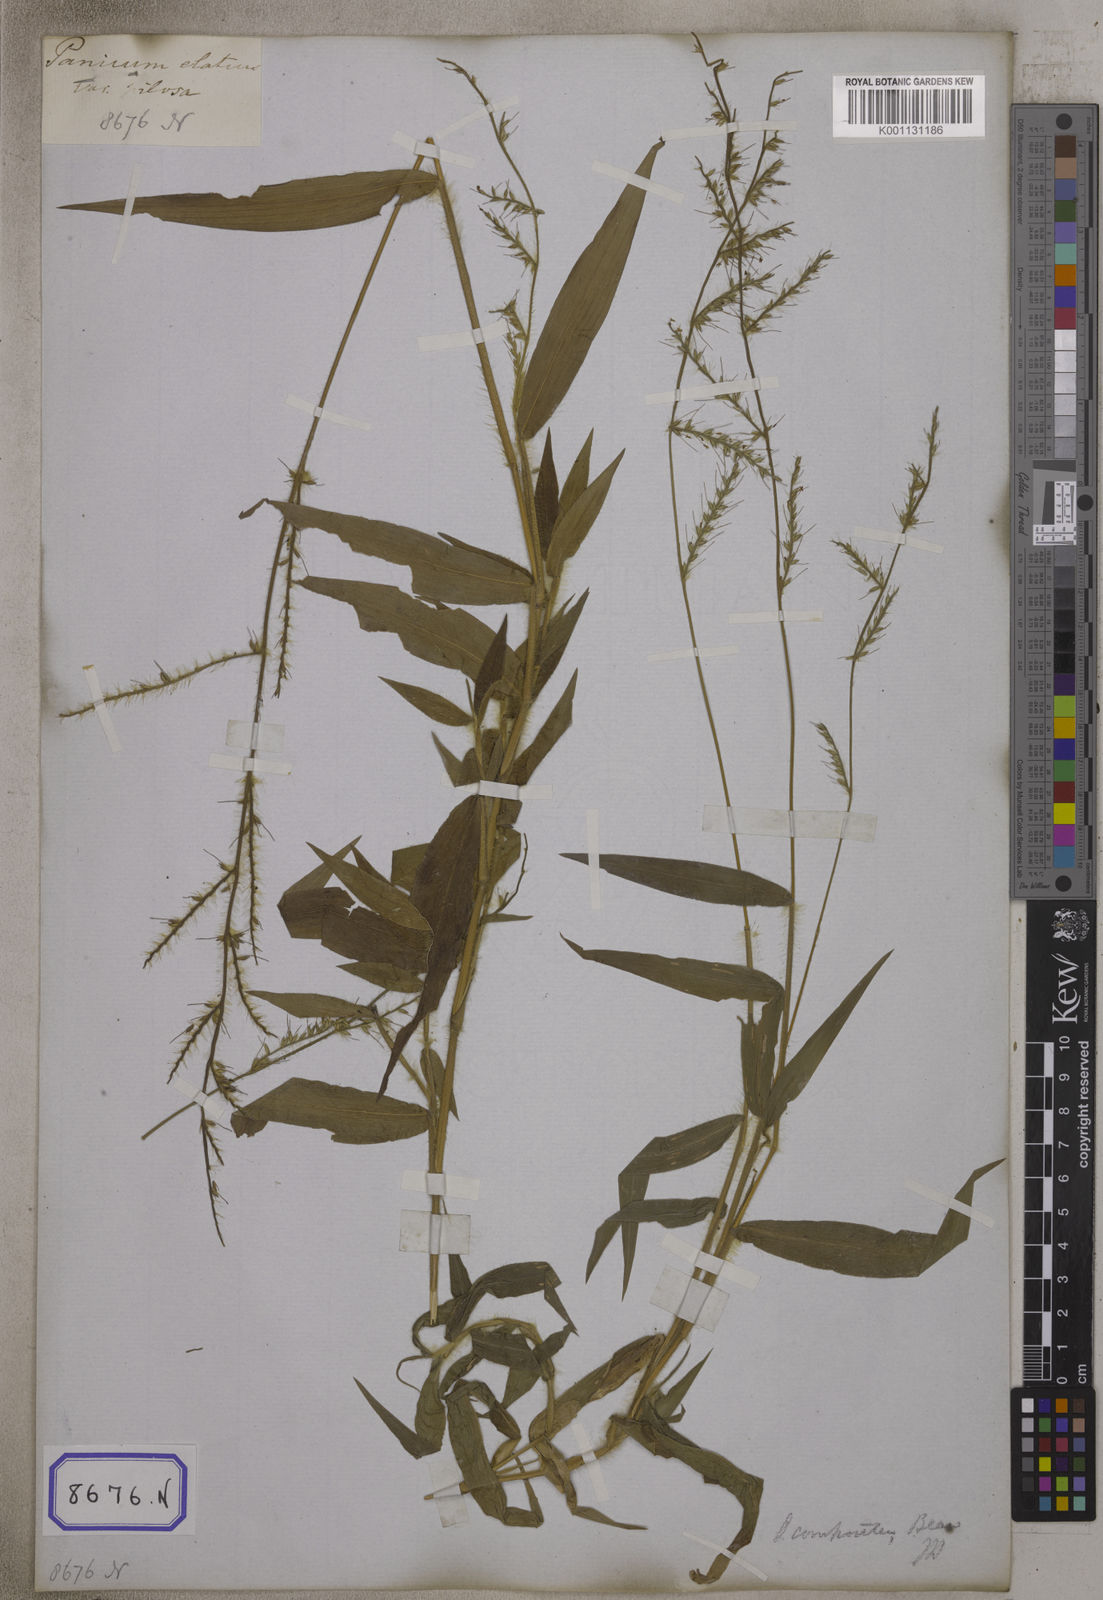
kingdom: Plantae
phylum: Tracheophyta
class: Liliopsida
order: Poales
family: Poaceae
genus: Oplismenus
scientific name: Oplismenus compositus
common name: Running mountain grass
